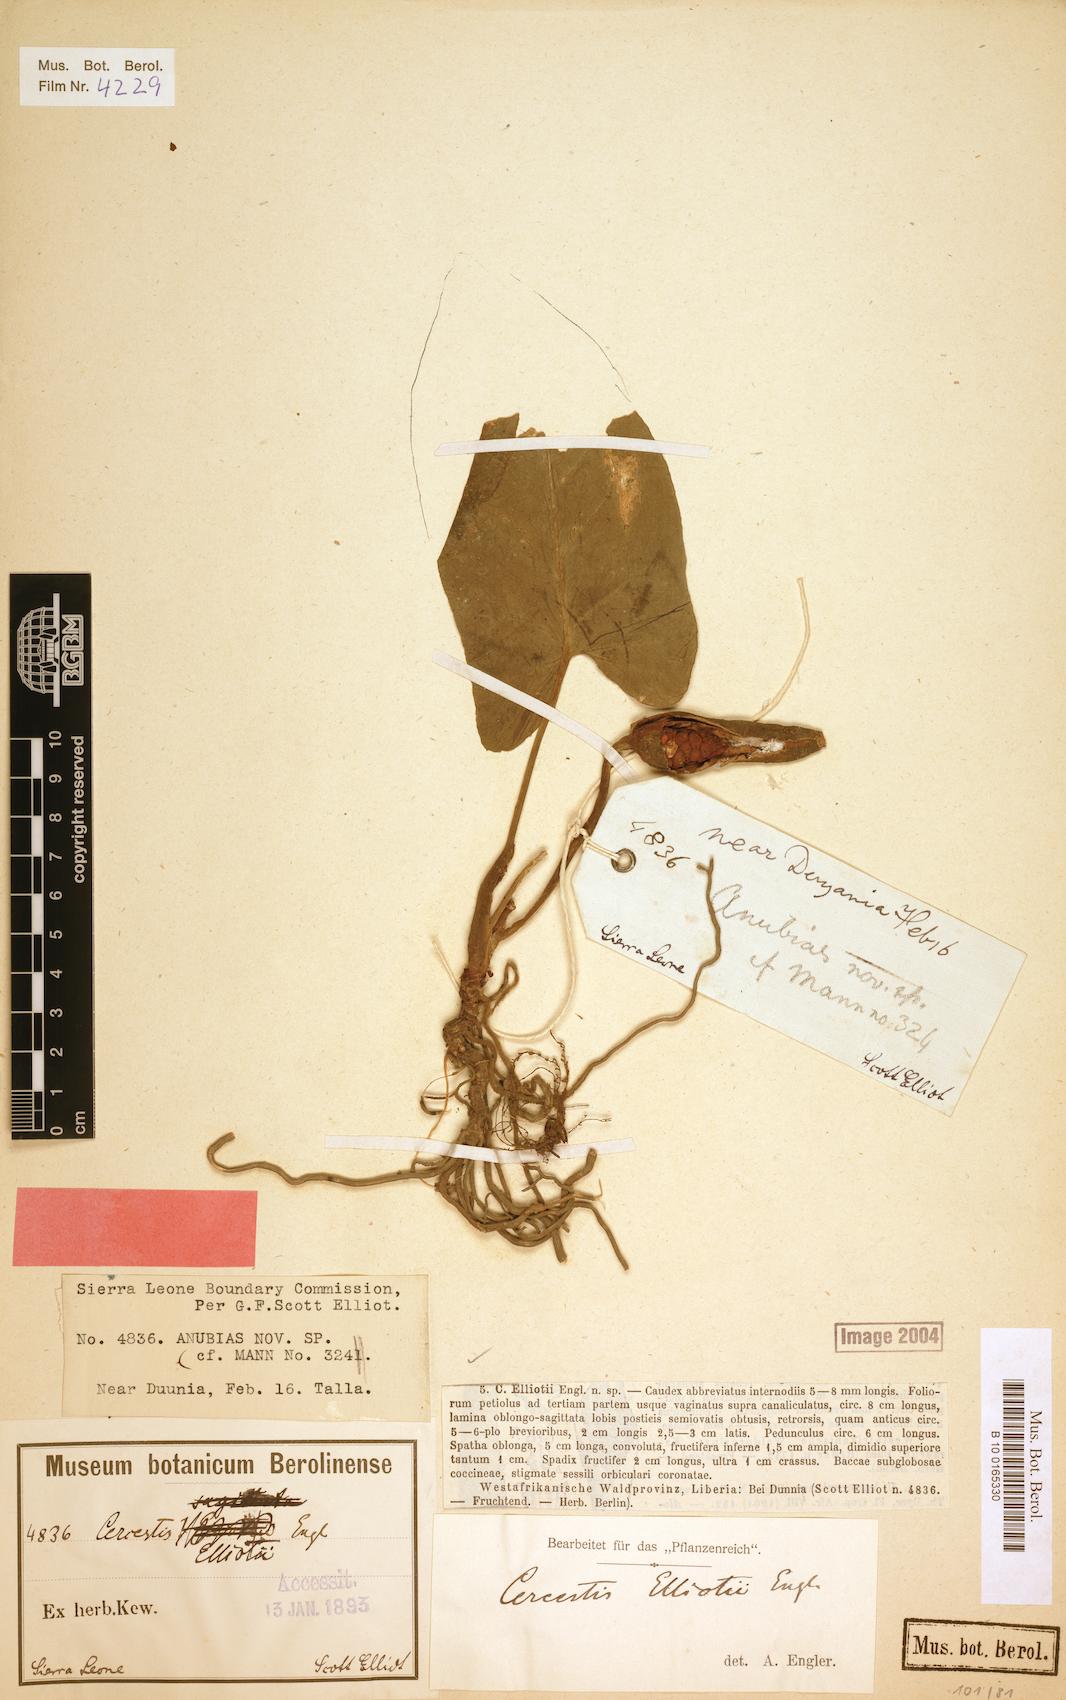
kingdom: Plantae
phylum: Tracheophyta
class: Liliopsida
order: Alismatales
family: Araceae
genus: Cercestis
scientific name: Cercestis dinklagei
